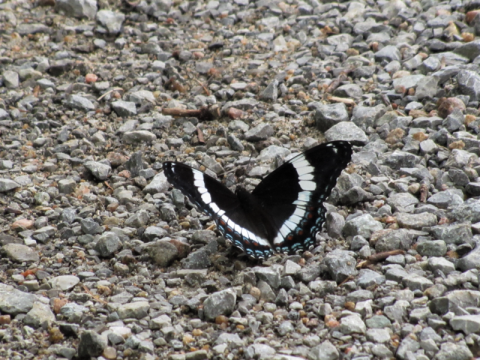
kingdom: Animalia
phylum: Arthropoda
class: Insecta
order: Lepidoptera
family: Nymphalidae
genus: Limenitis
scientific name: Limenitis arthemis
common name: Red-spotted Admiral
